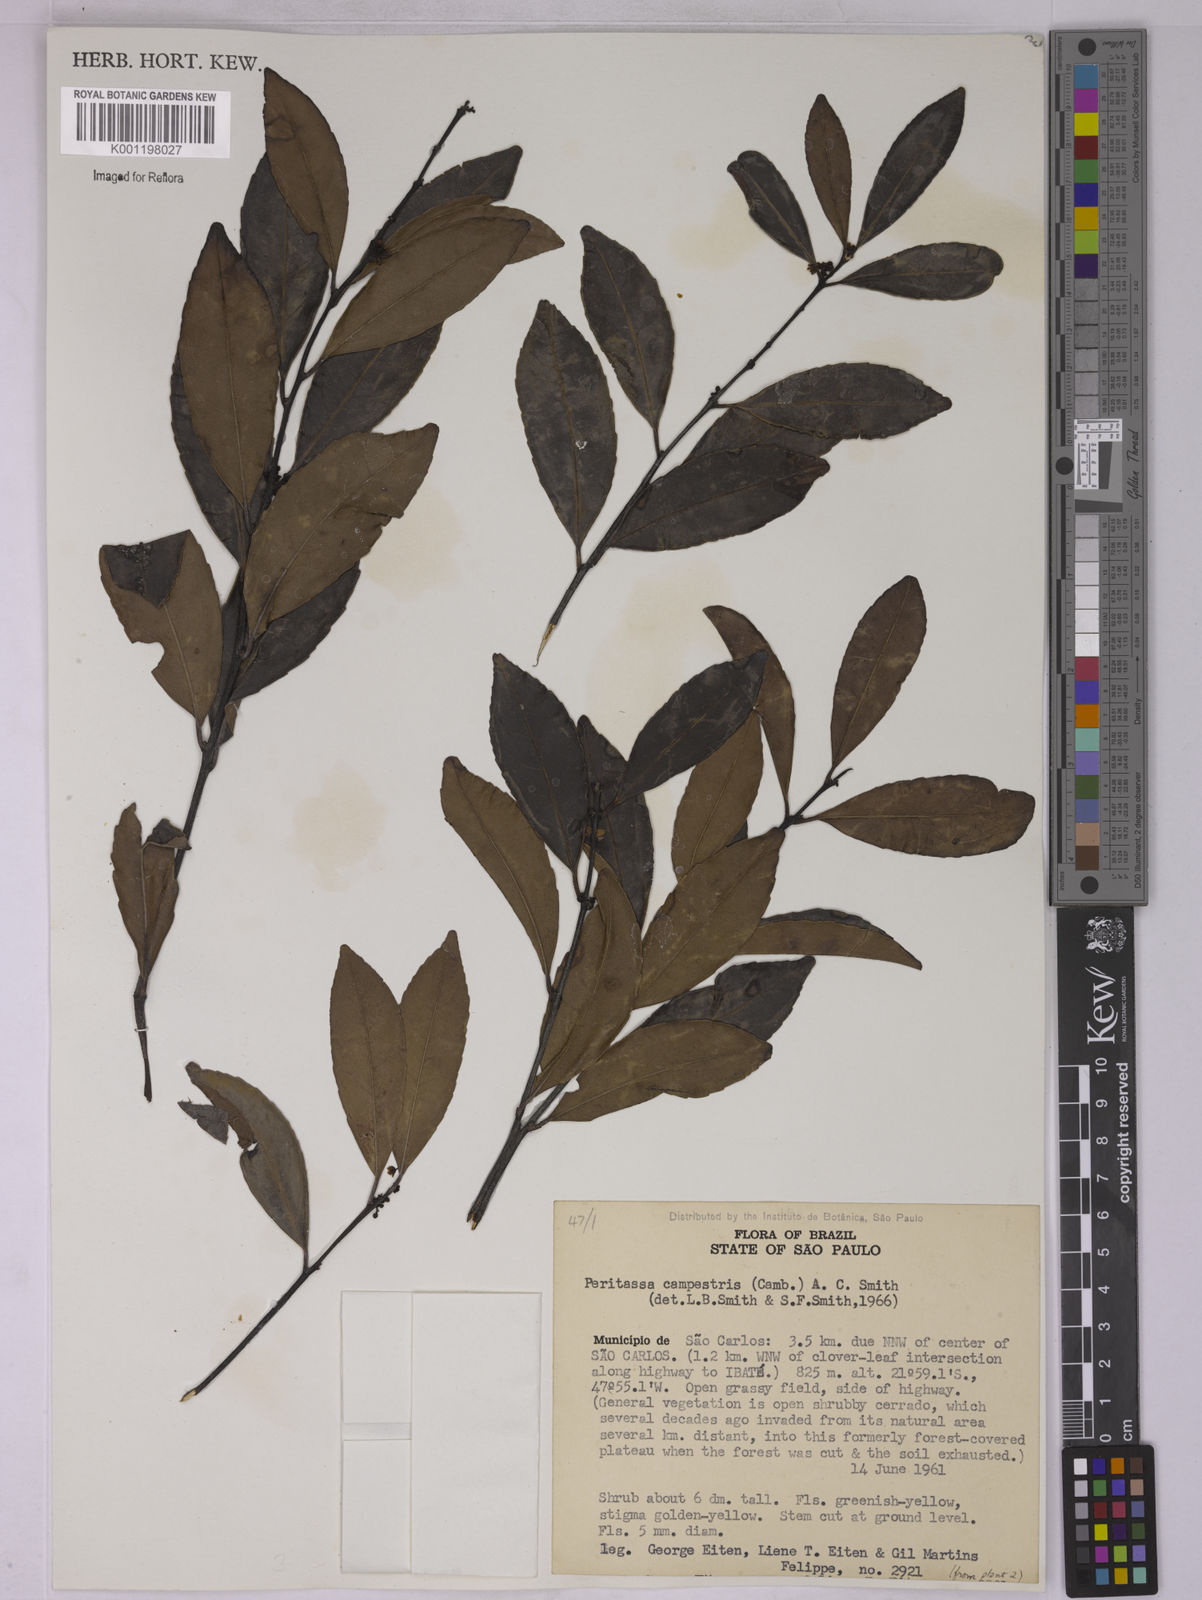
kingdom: Plantae
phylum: Tracheophyta
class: Magnoliopsida
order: Celastrales
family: Celastraceae
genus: Peritassa
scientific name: Peritassa campestris
